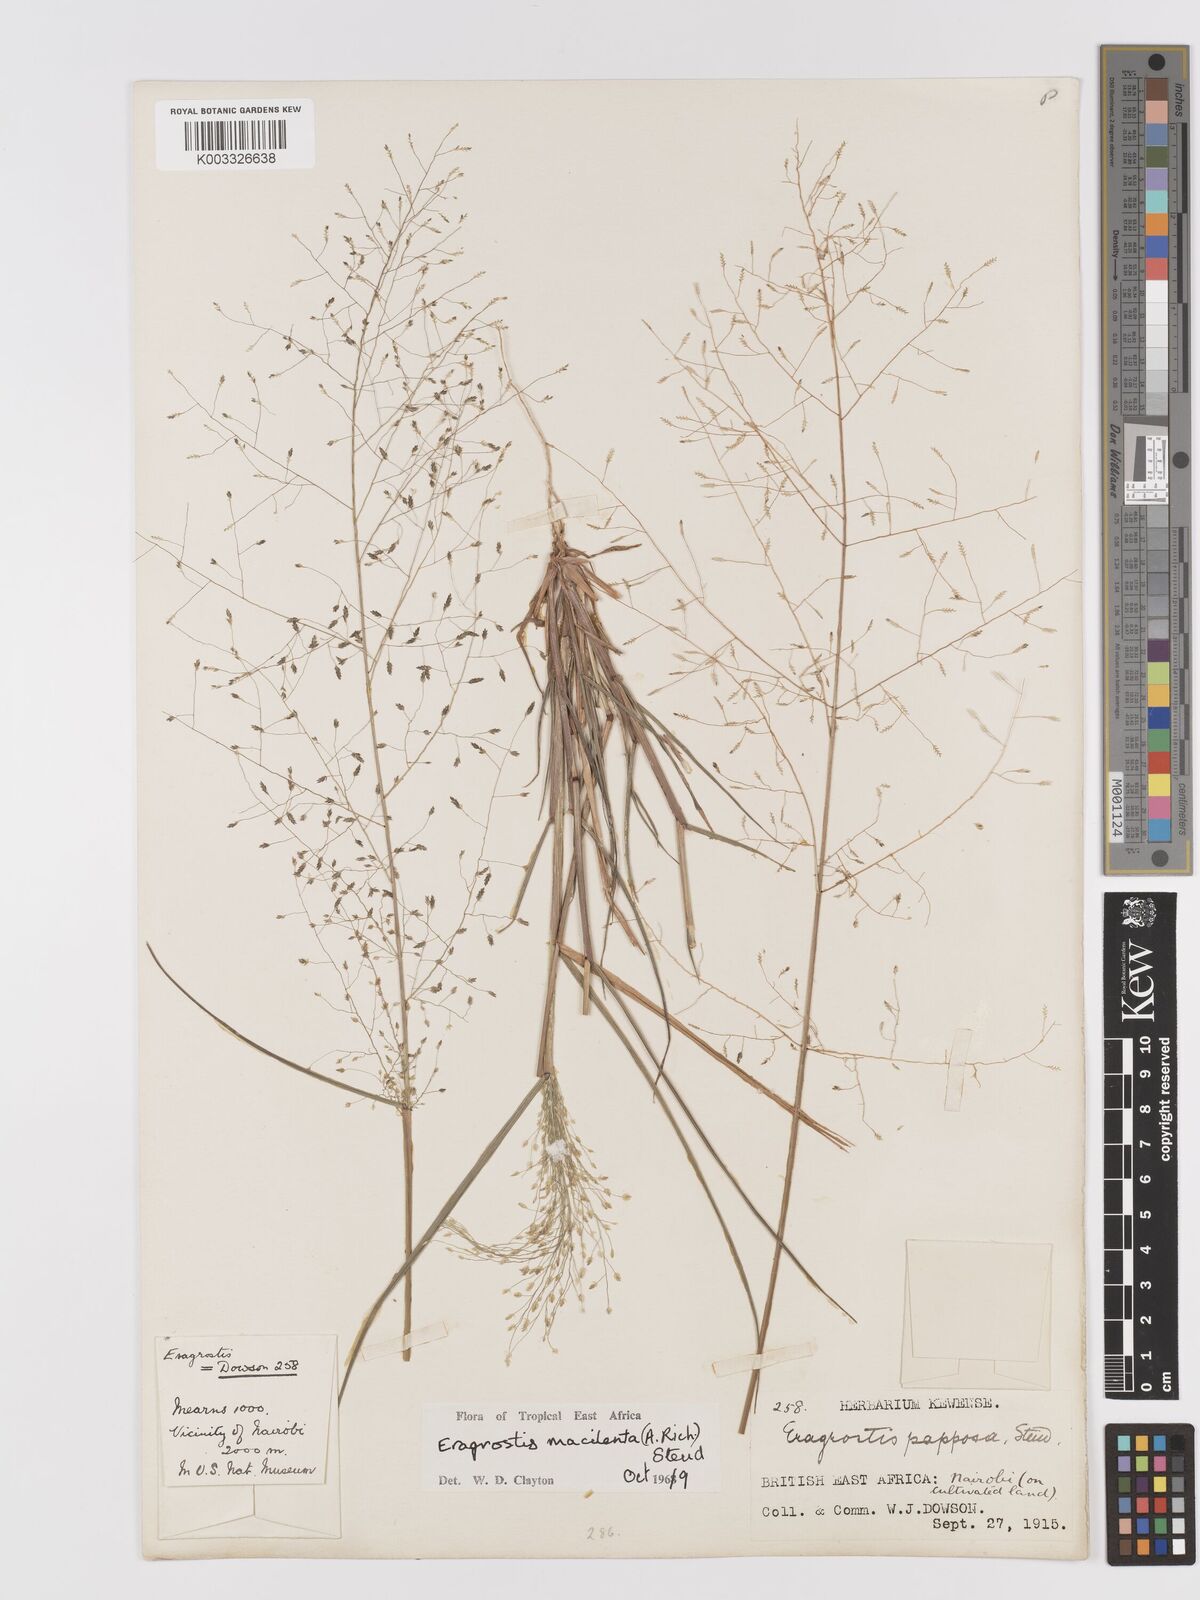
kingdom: Plantae
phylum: Tracheophyta
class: Liliopsida
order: Poales
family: Poaceae
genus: Eragrostis
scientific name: Eragrostis macilenta
